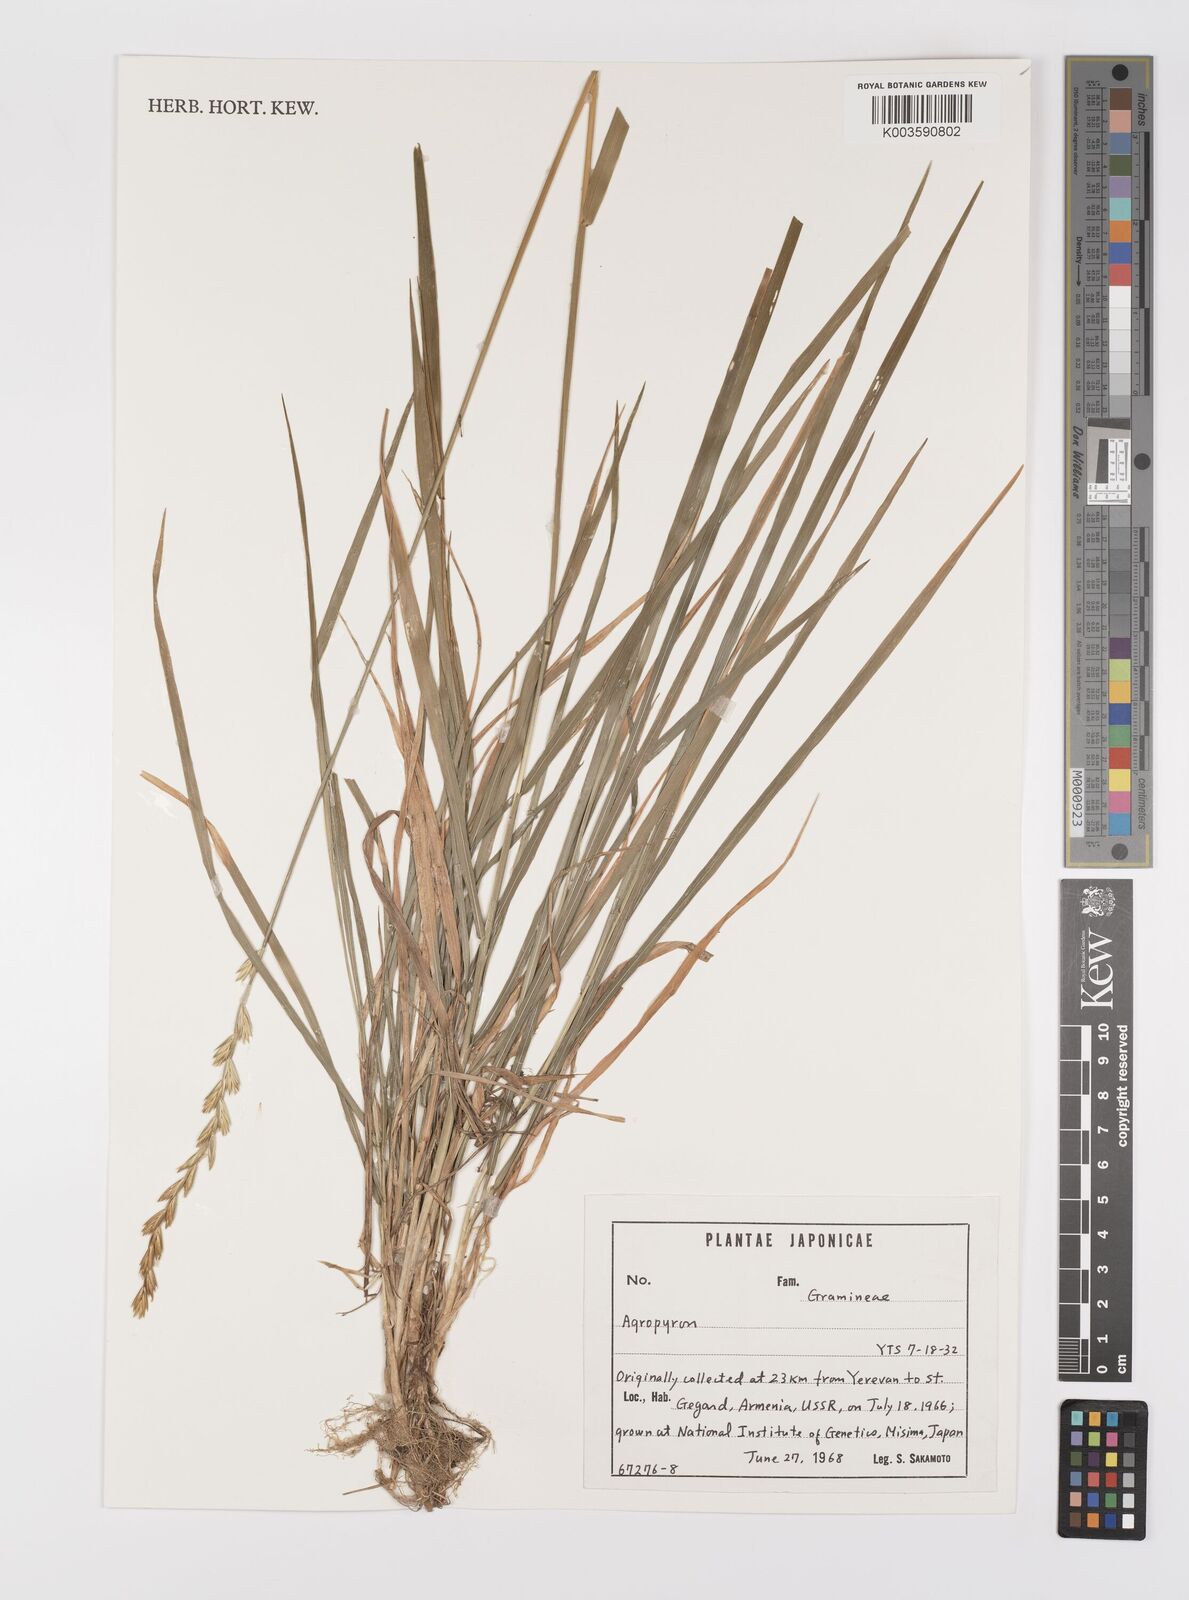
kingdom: Plantae
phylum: Tracheophyta
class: Liliopsida
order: Poales
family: Poaceae
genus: Elymus
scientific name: Elymus
